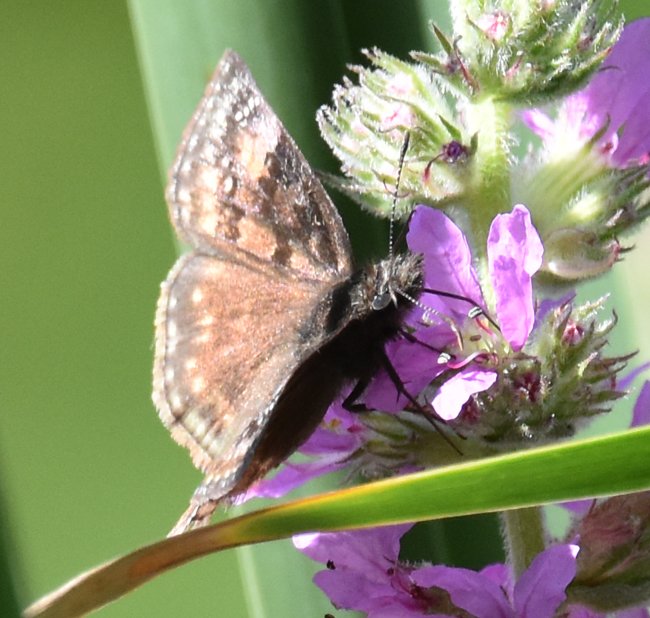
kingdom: Animalia
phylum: Arthropoda
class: Insecta
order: Lepidoptera
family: Hesperiidae
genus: Gesta
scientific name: Gesta
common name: Wild Indigo Duskywing
